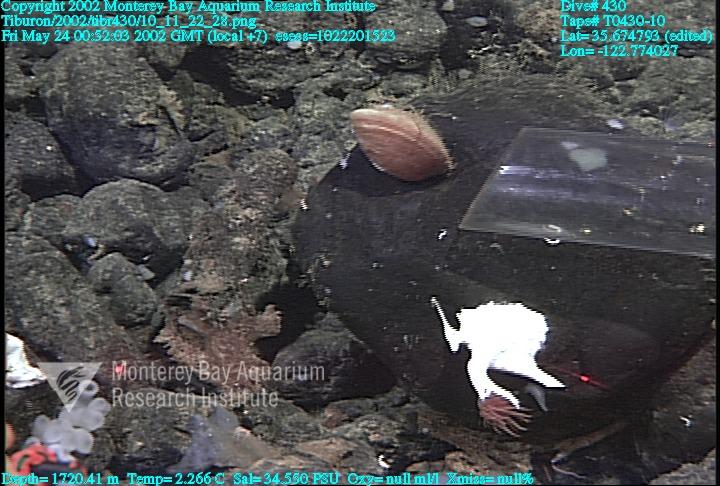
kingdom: Animalia
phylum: Porifera
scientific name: Porifera
